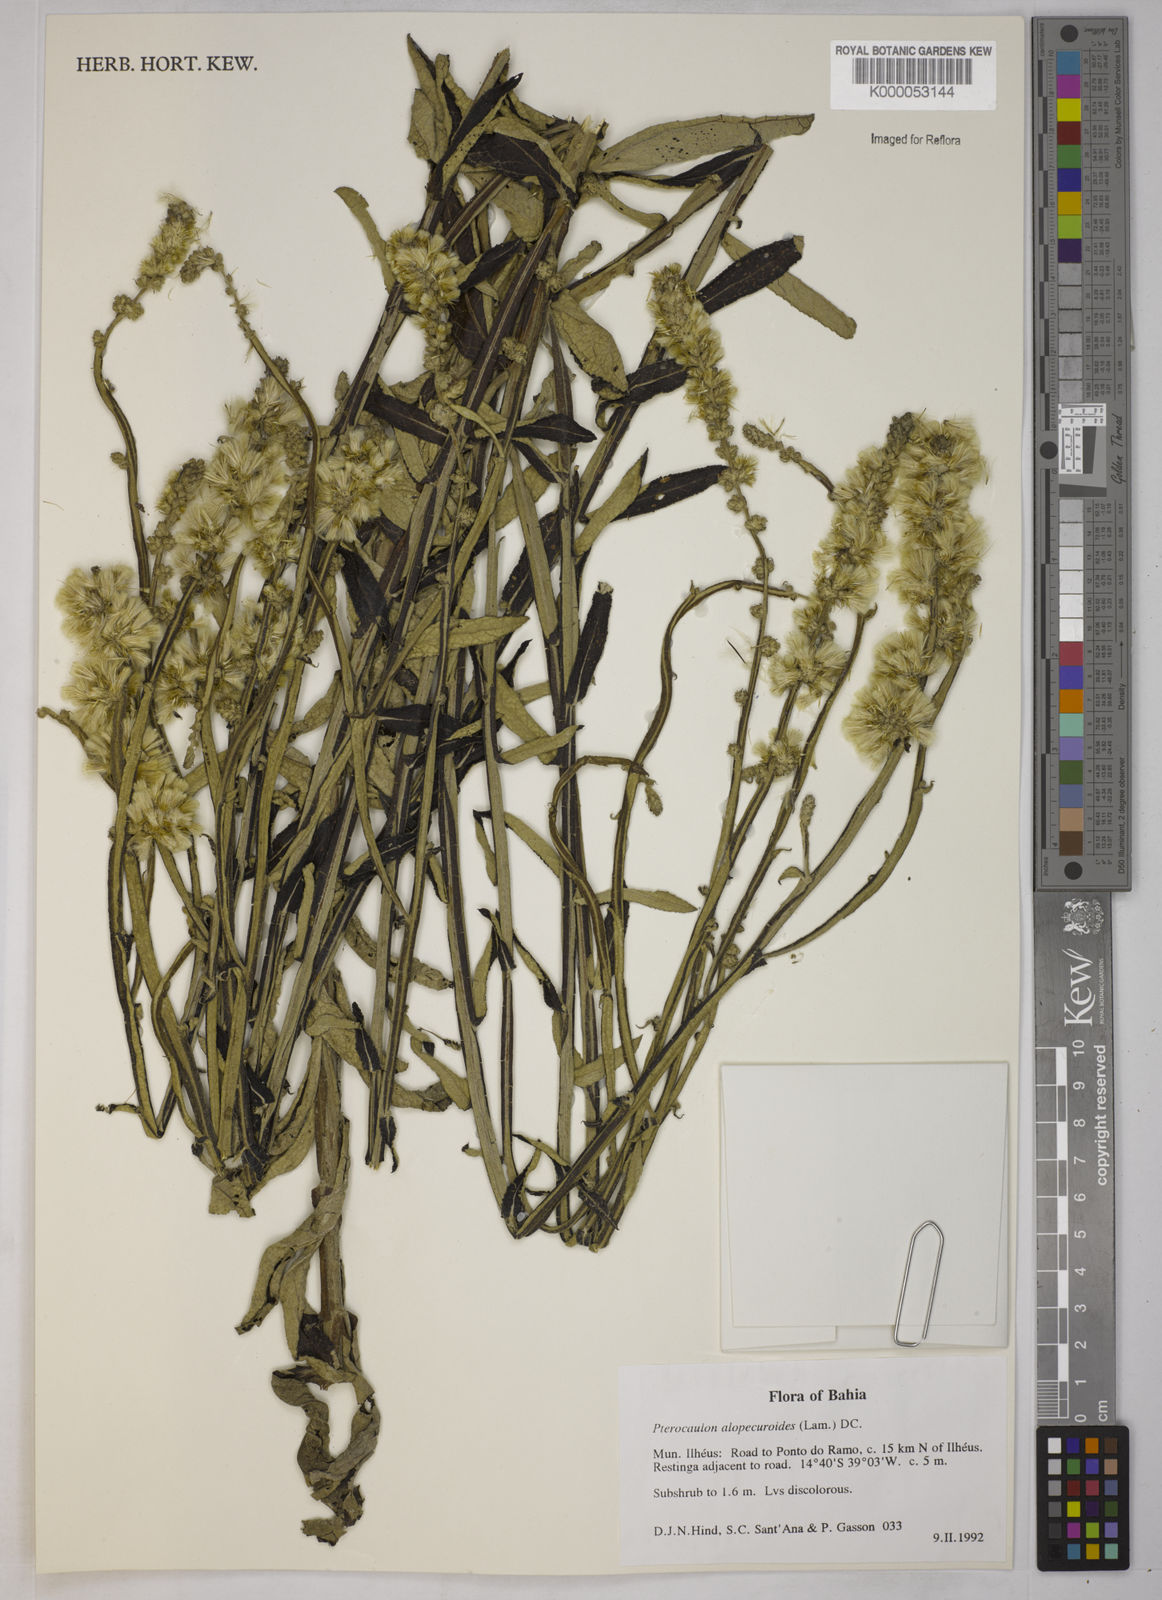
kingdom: Plantae
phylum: Tracheophyta
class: Magnoliopsida
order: Asterales
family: Asteraceae
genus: Pterocaulon
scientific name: Pterocaulon alopecuroides
